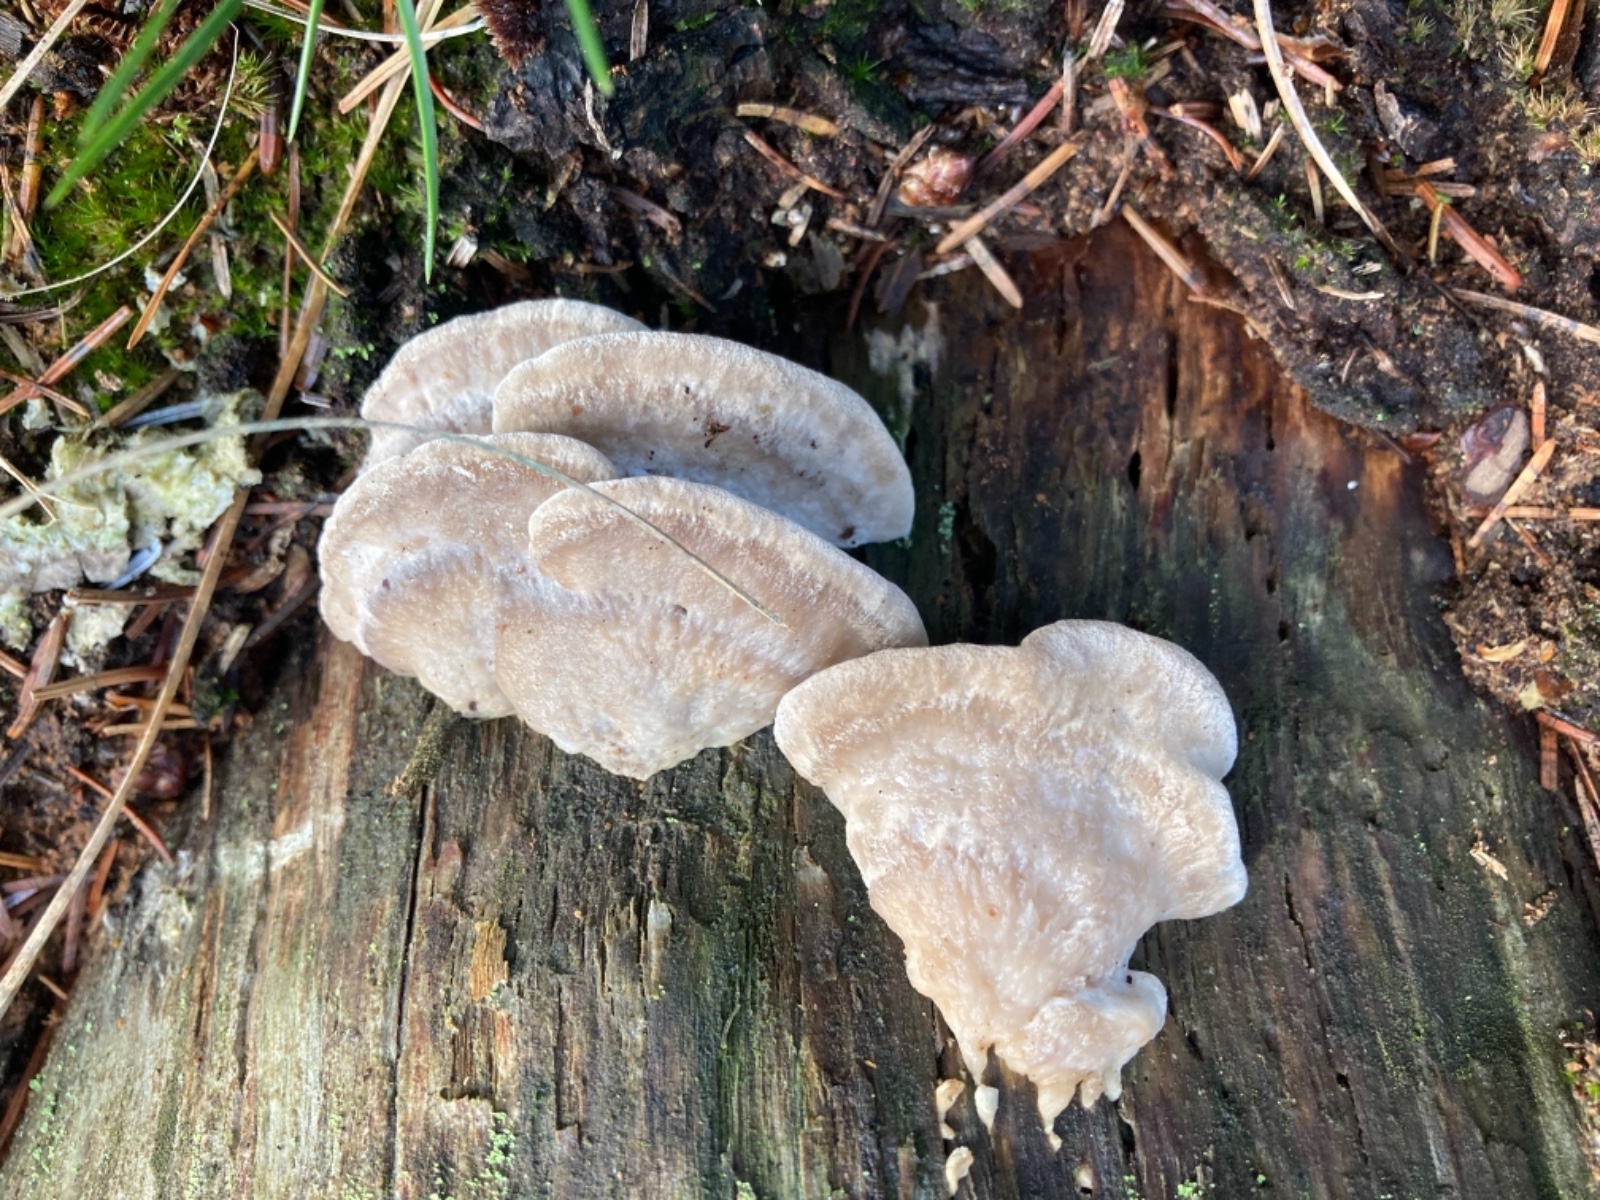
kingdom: Fungi
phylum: Basidiomycota
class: Agaricomycetes
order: Polyporales
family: Dacryobolaceae
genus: Postia
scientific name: Postia tephroleuca
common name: grålig kødporesvamp
